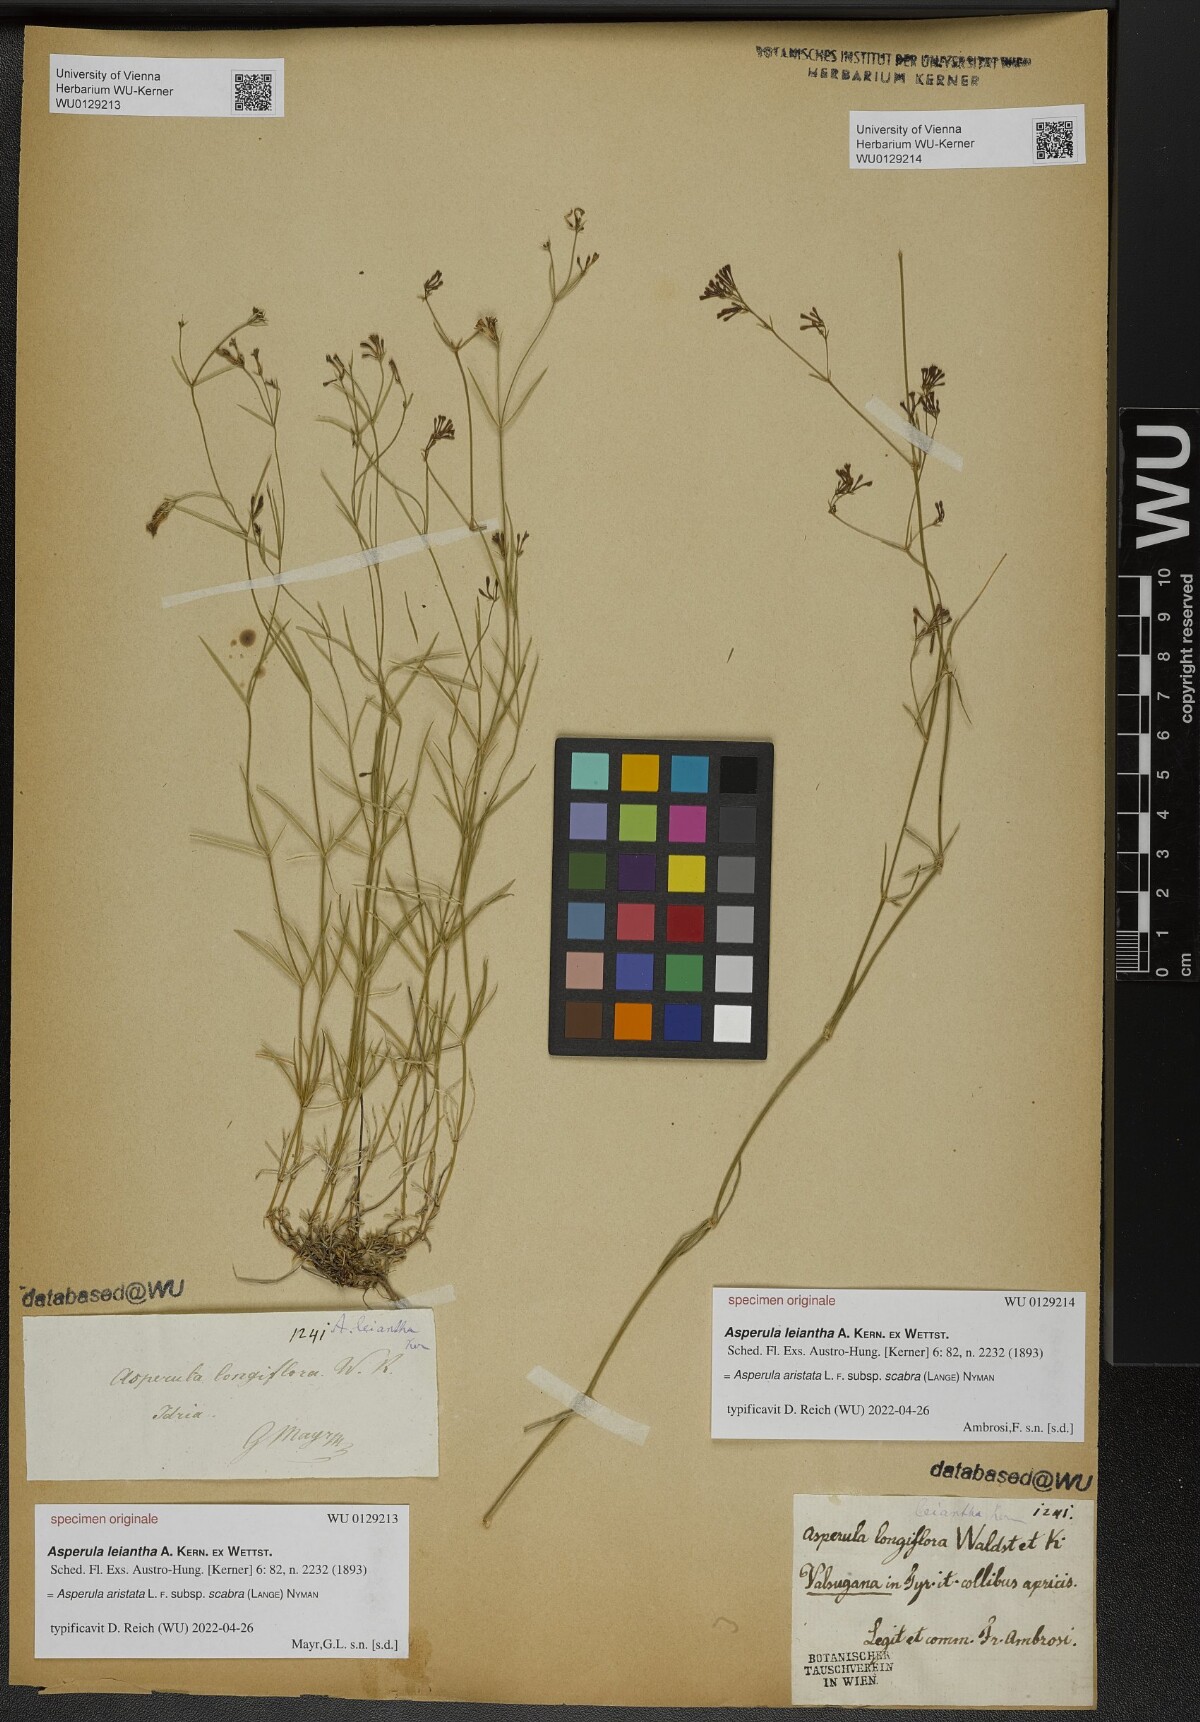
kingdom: Plantae
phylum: Tracheophyta
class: Magnoliopsida
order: Gentianales
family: Rubiaceae
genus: Asperula
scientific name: Asperula
